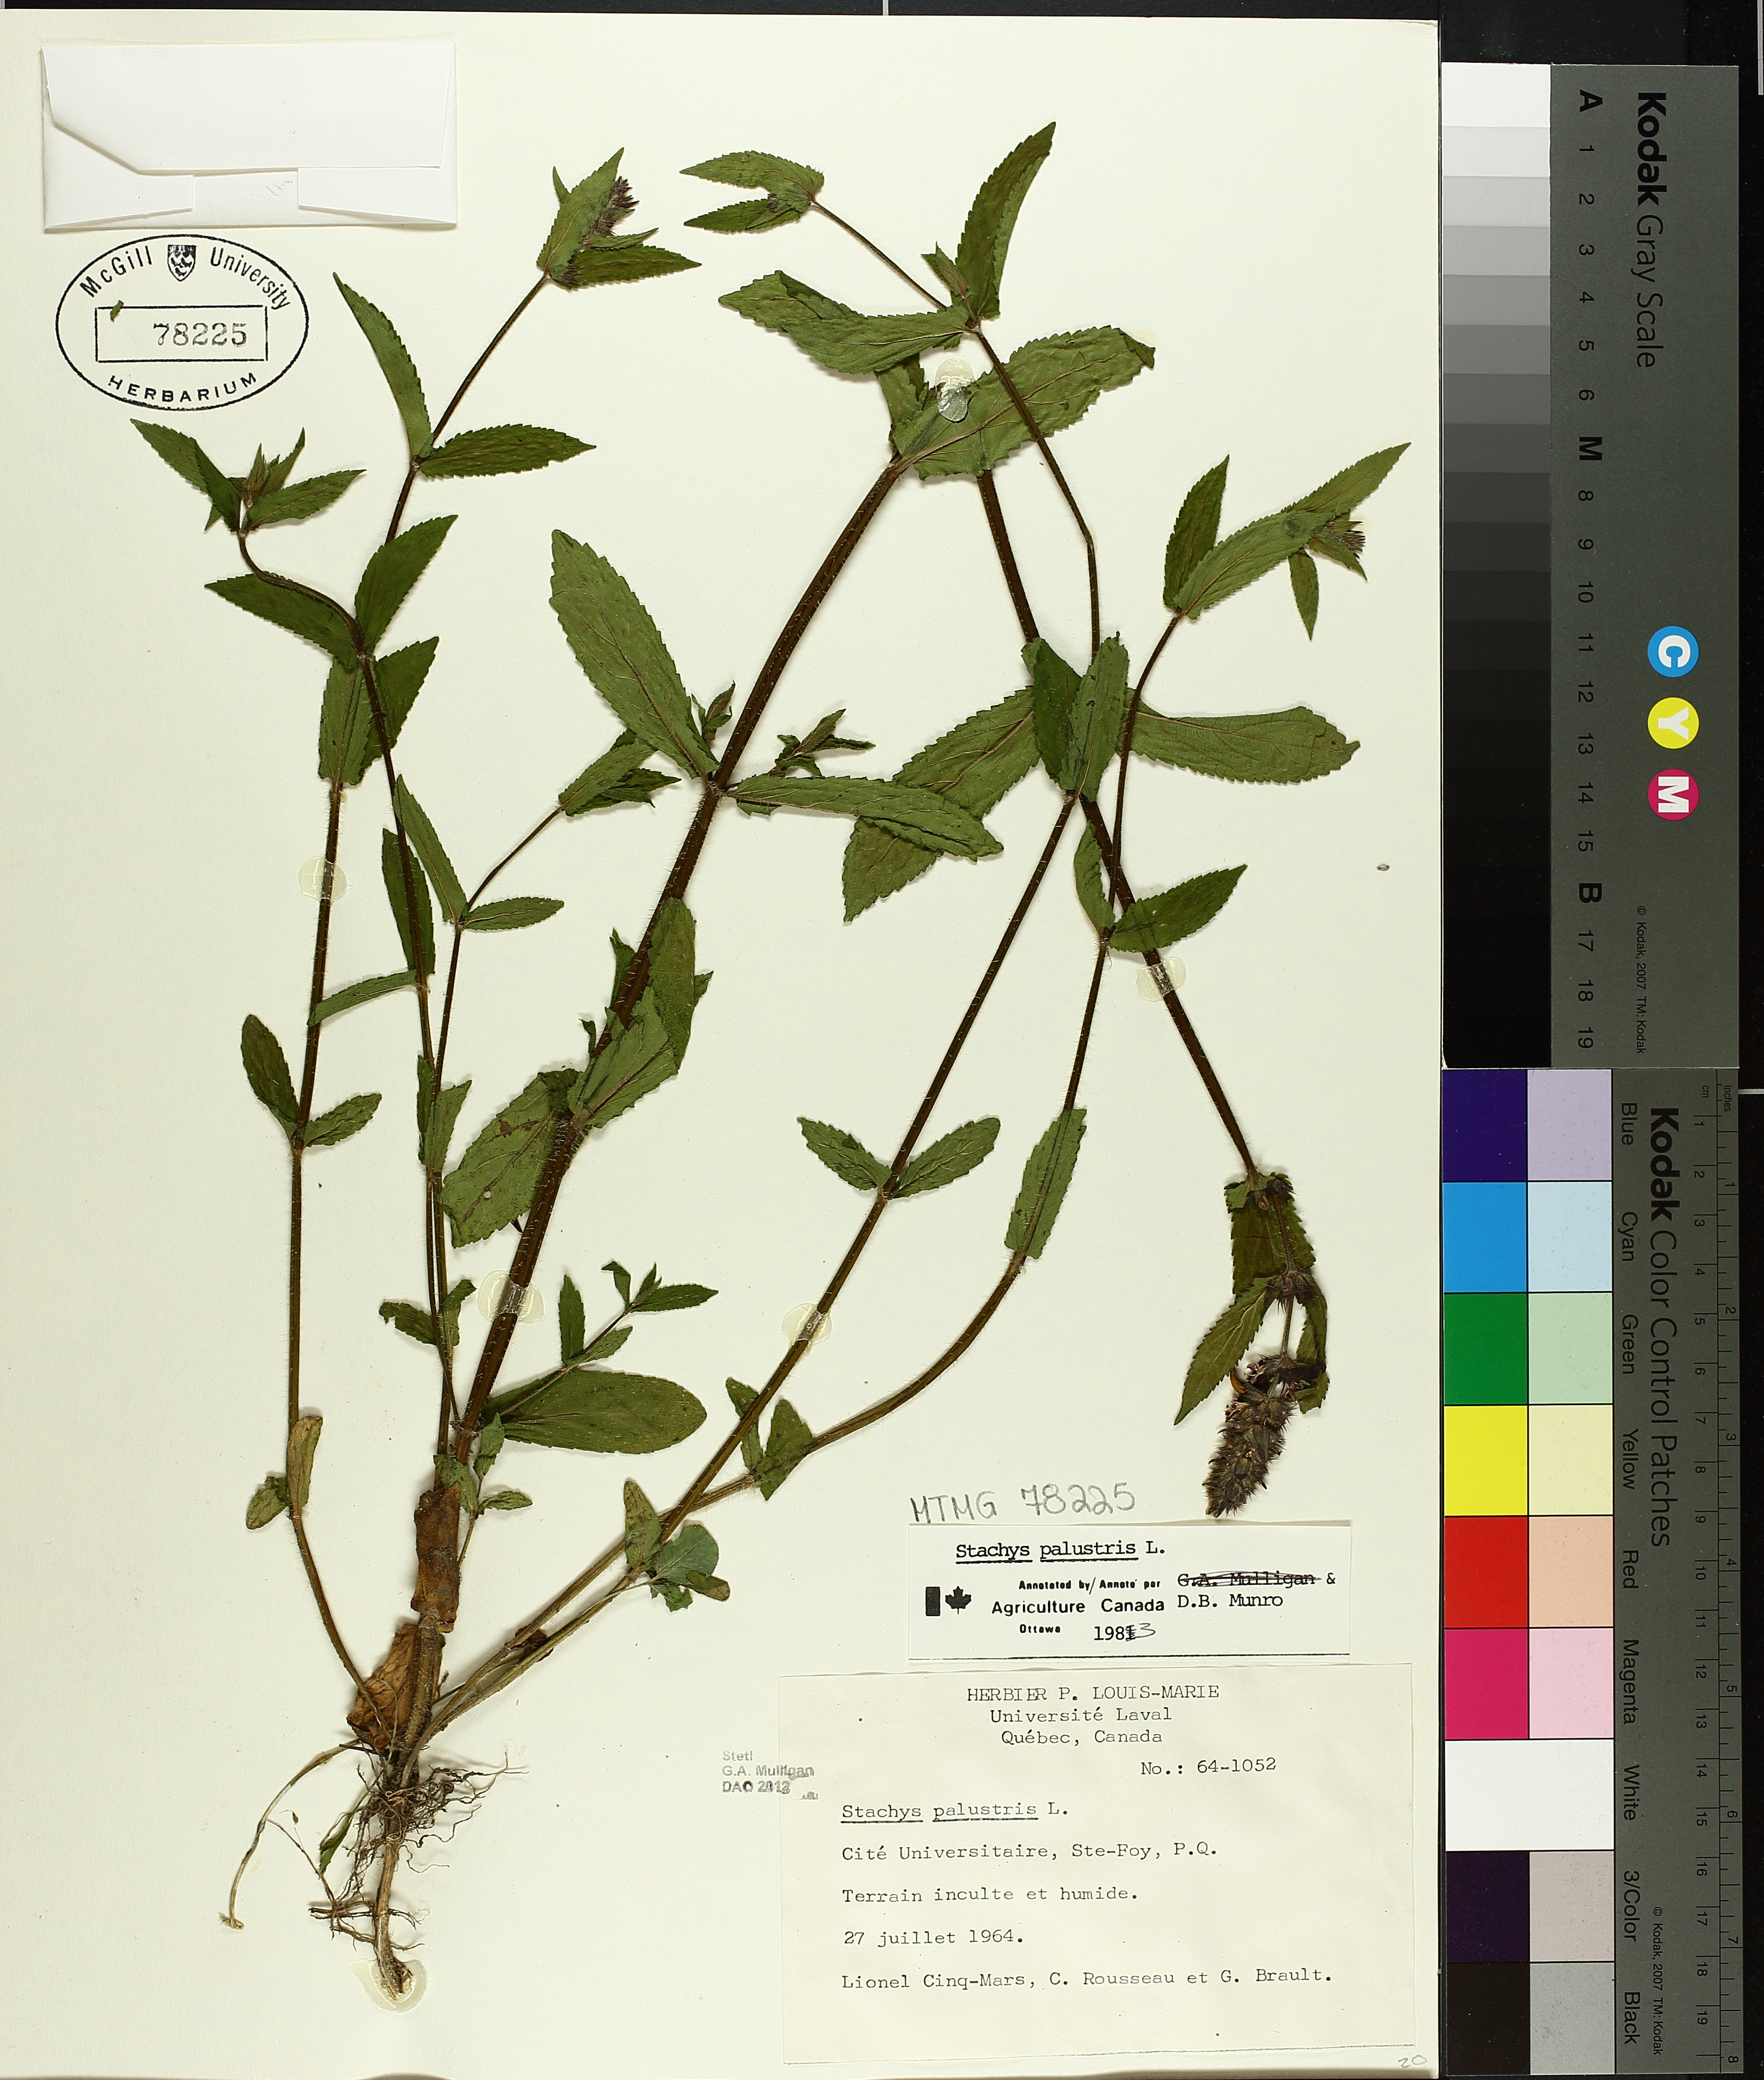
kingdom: Plantae
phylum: Tracheophyta
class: Magnoliopsida
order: Lamiales
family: Lamiaceae
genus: Stachys
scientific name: Stachys palustris
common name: Marsh woundwort
